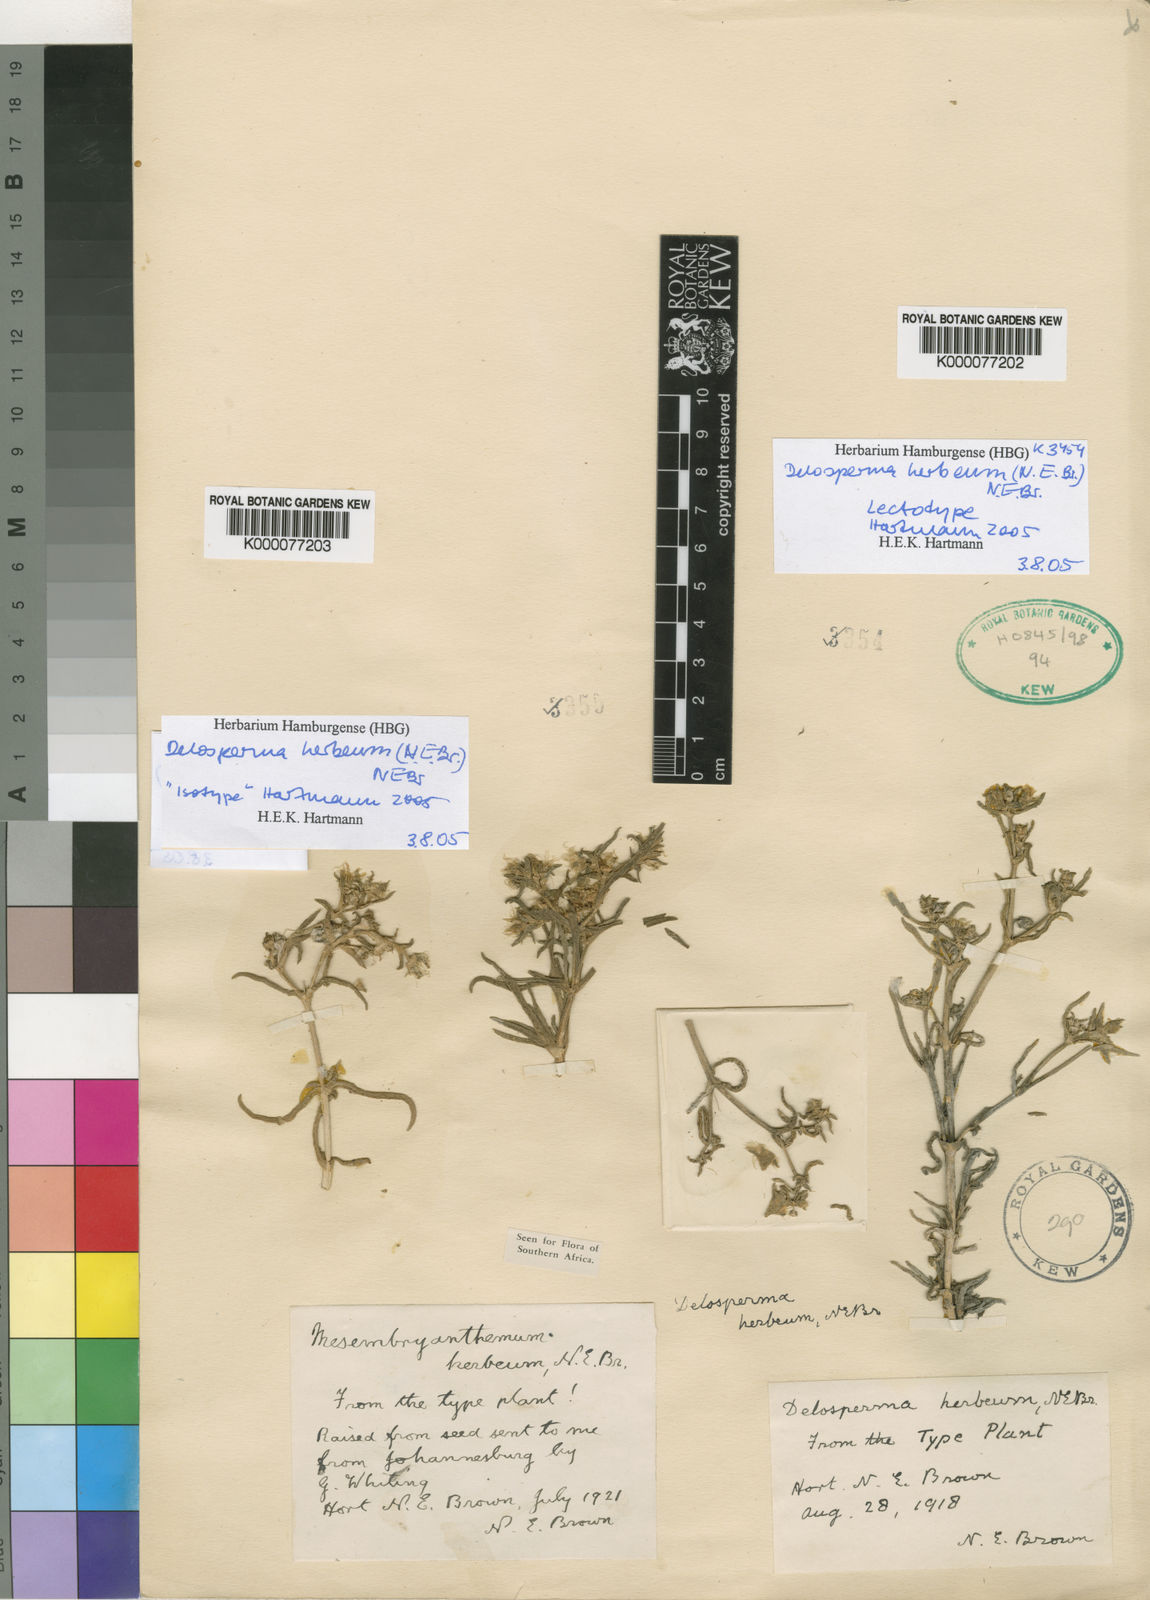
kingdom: Plantae
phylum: Tracheophyta
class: Magnoliopsida
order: Caryophyllales
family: Aizoaceae
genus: Delosperma
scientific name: Delosperma herbeum
